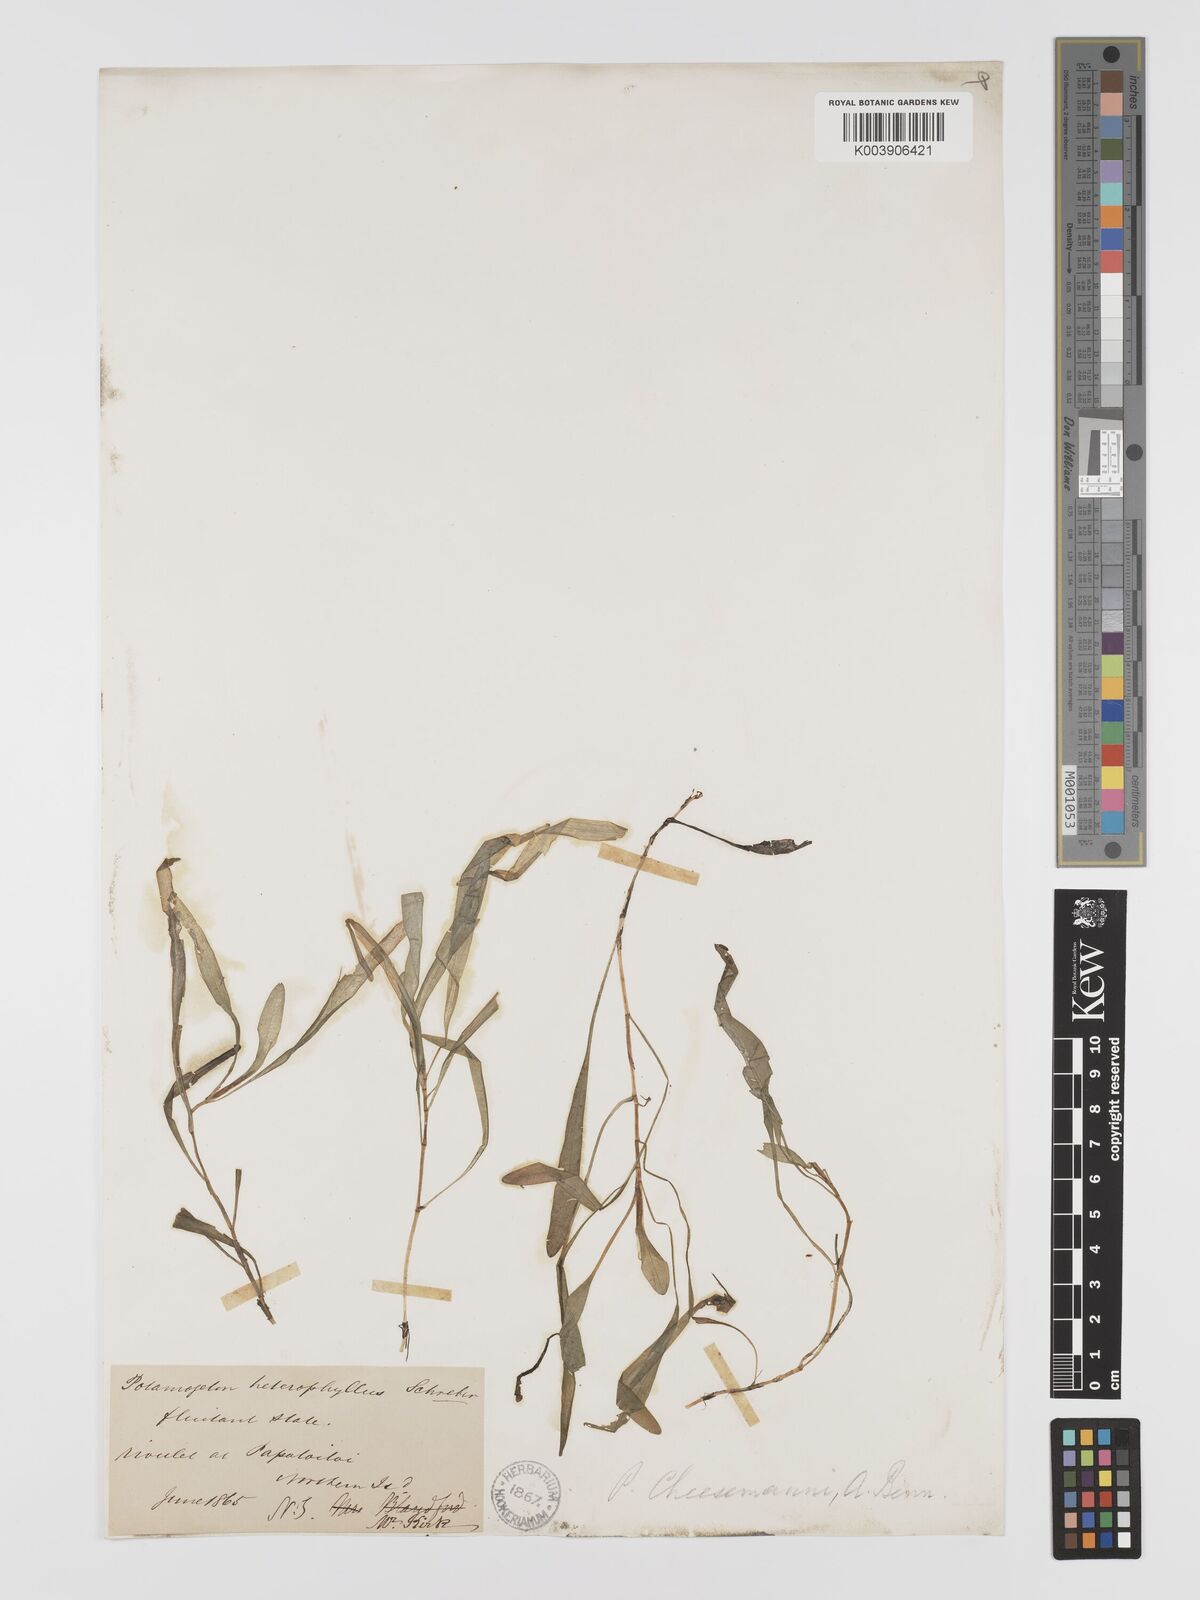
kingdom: Plantae
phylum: Tracheophyta
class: Liliopsida
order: Alismatales
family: Potamogetonaceae
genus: Potamogeton
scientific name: Potamogeton cheesemanii
